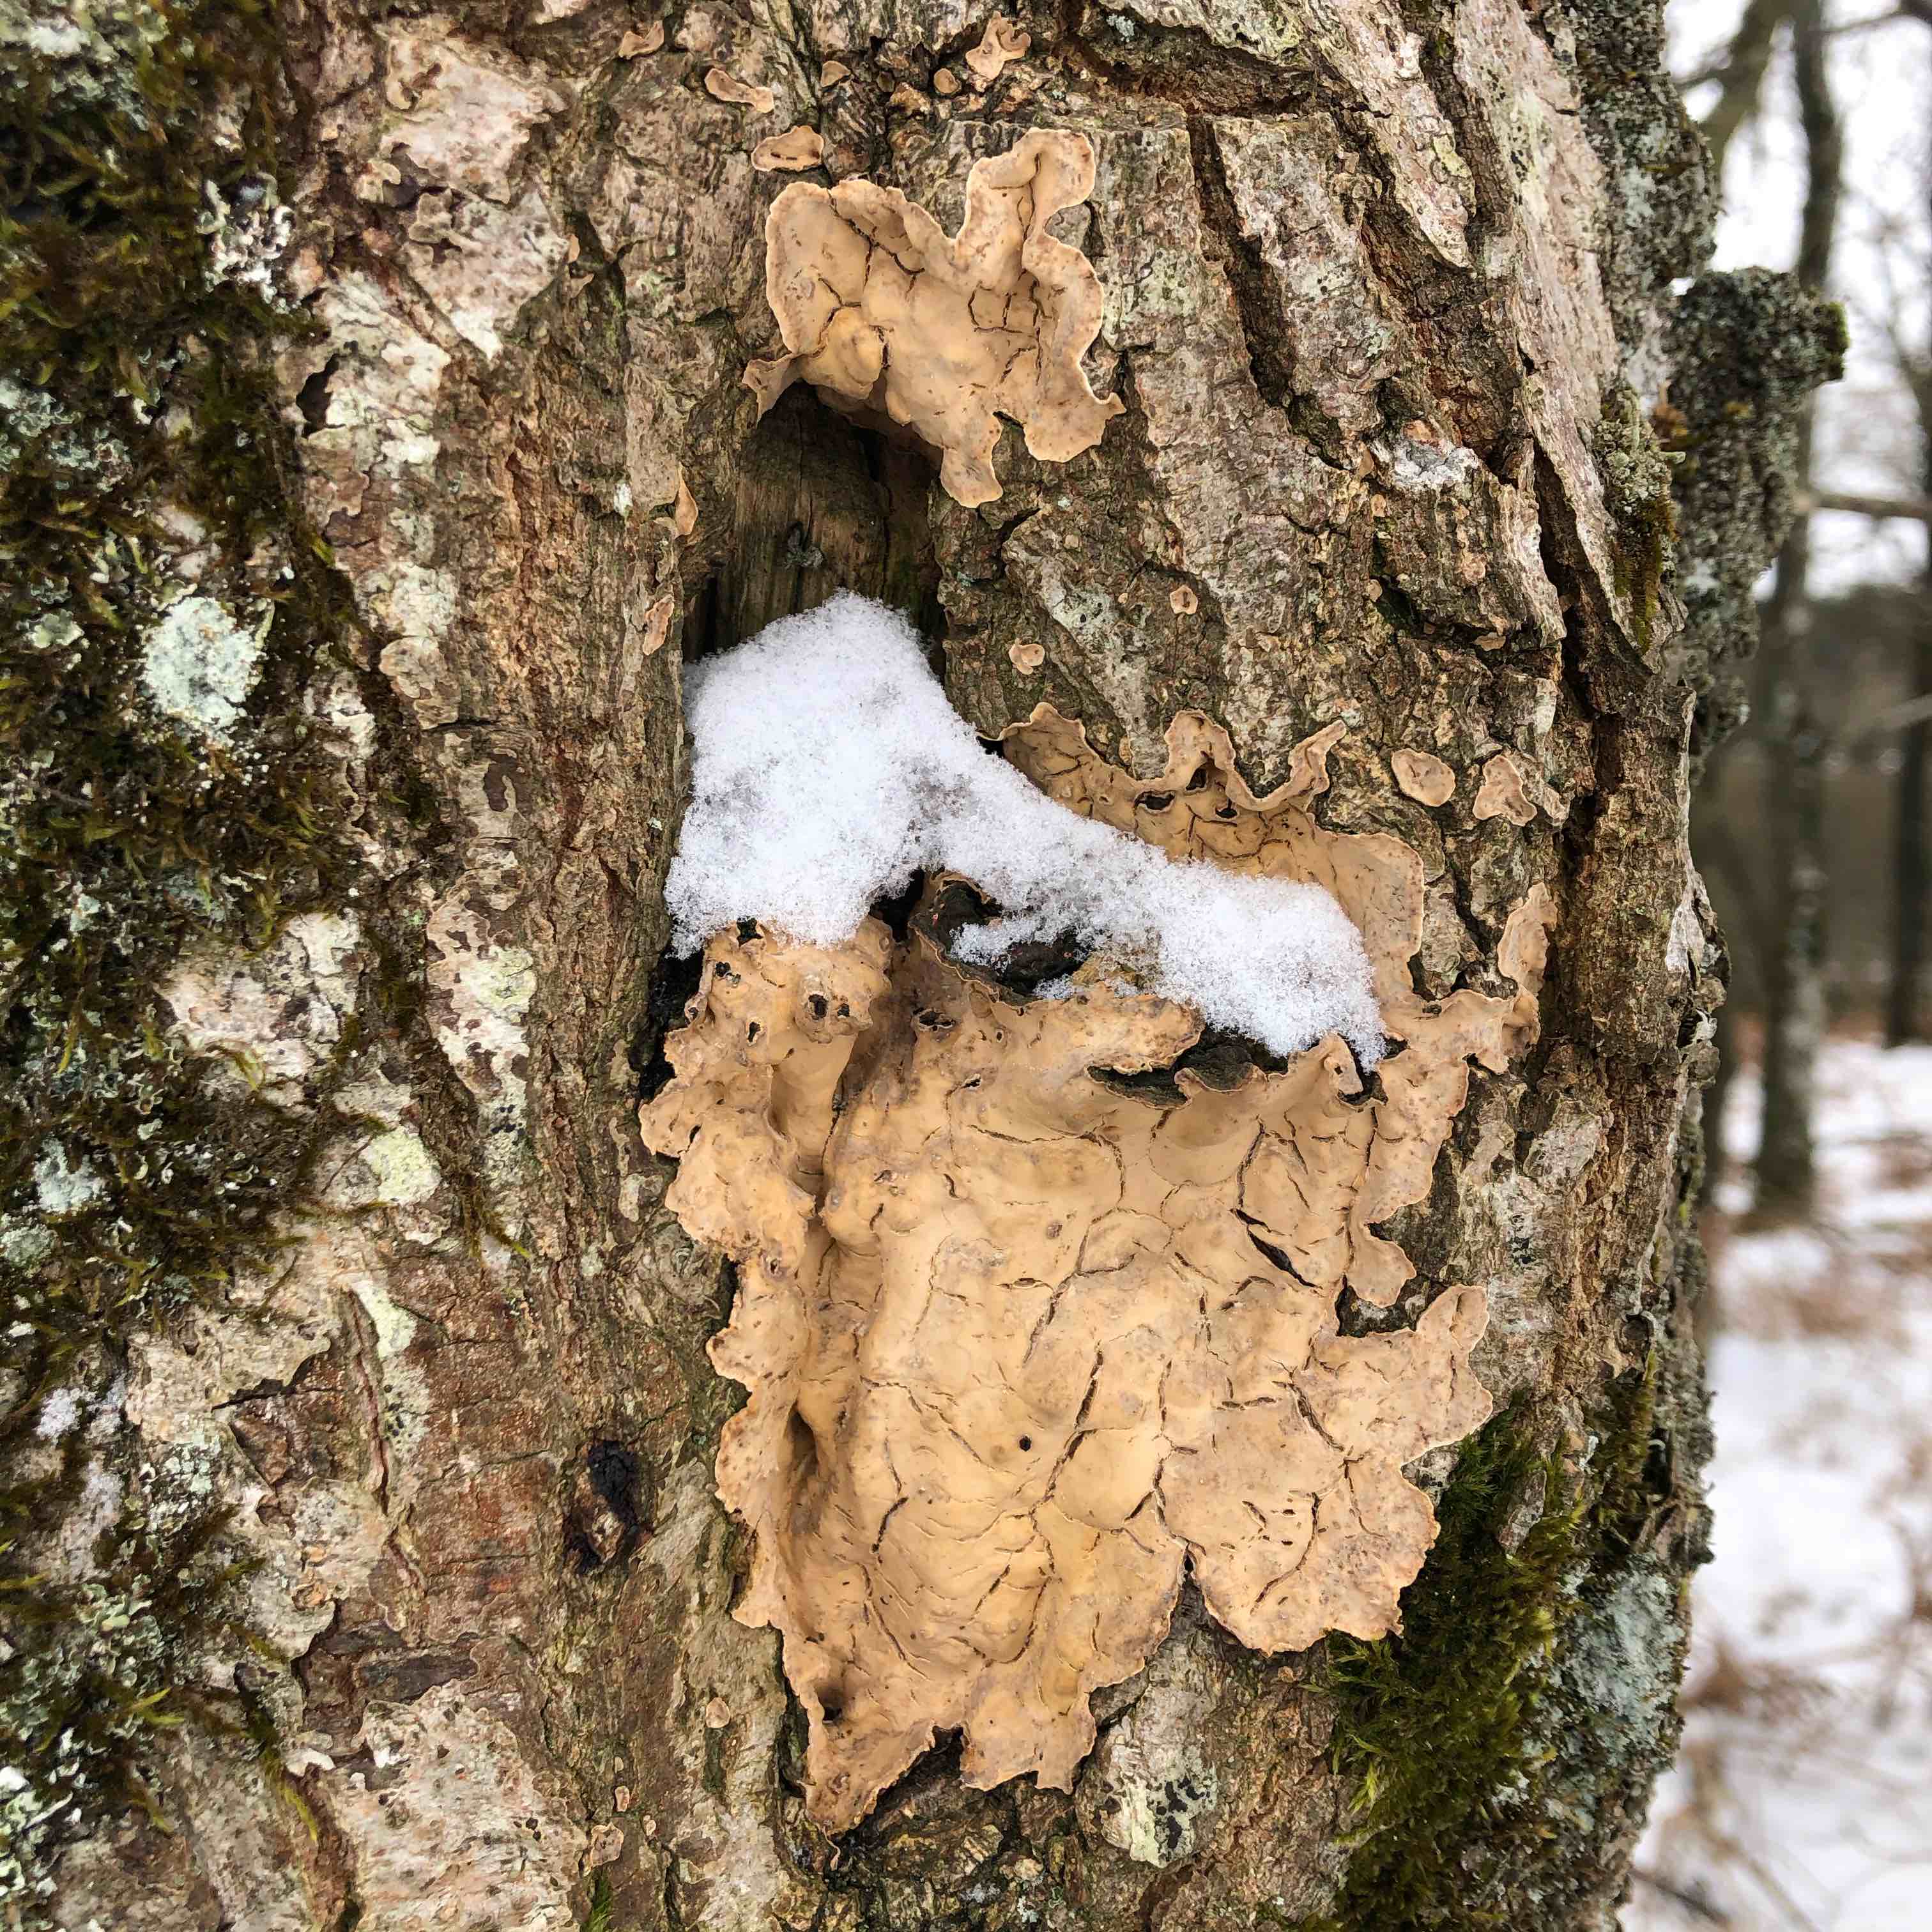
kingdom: Fungi
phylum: Basidiomycota
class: Agaricomycetes
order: Russulales
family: Stereaceae
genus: Stereum
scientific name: Stereum rugosum
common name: rynket lædersvamp
